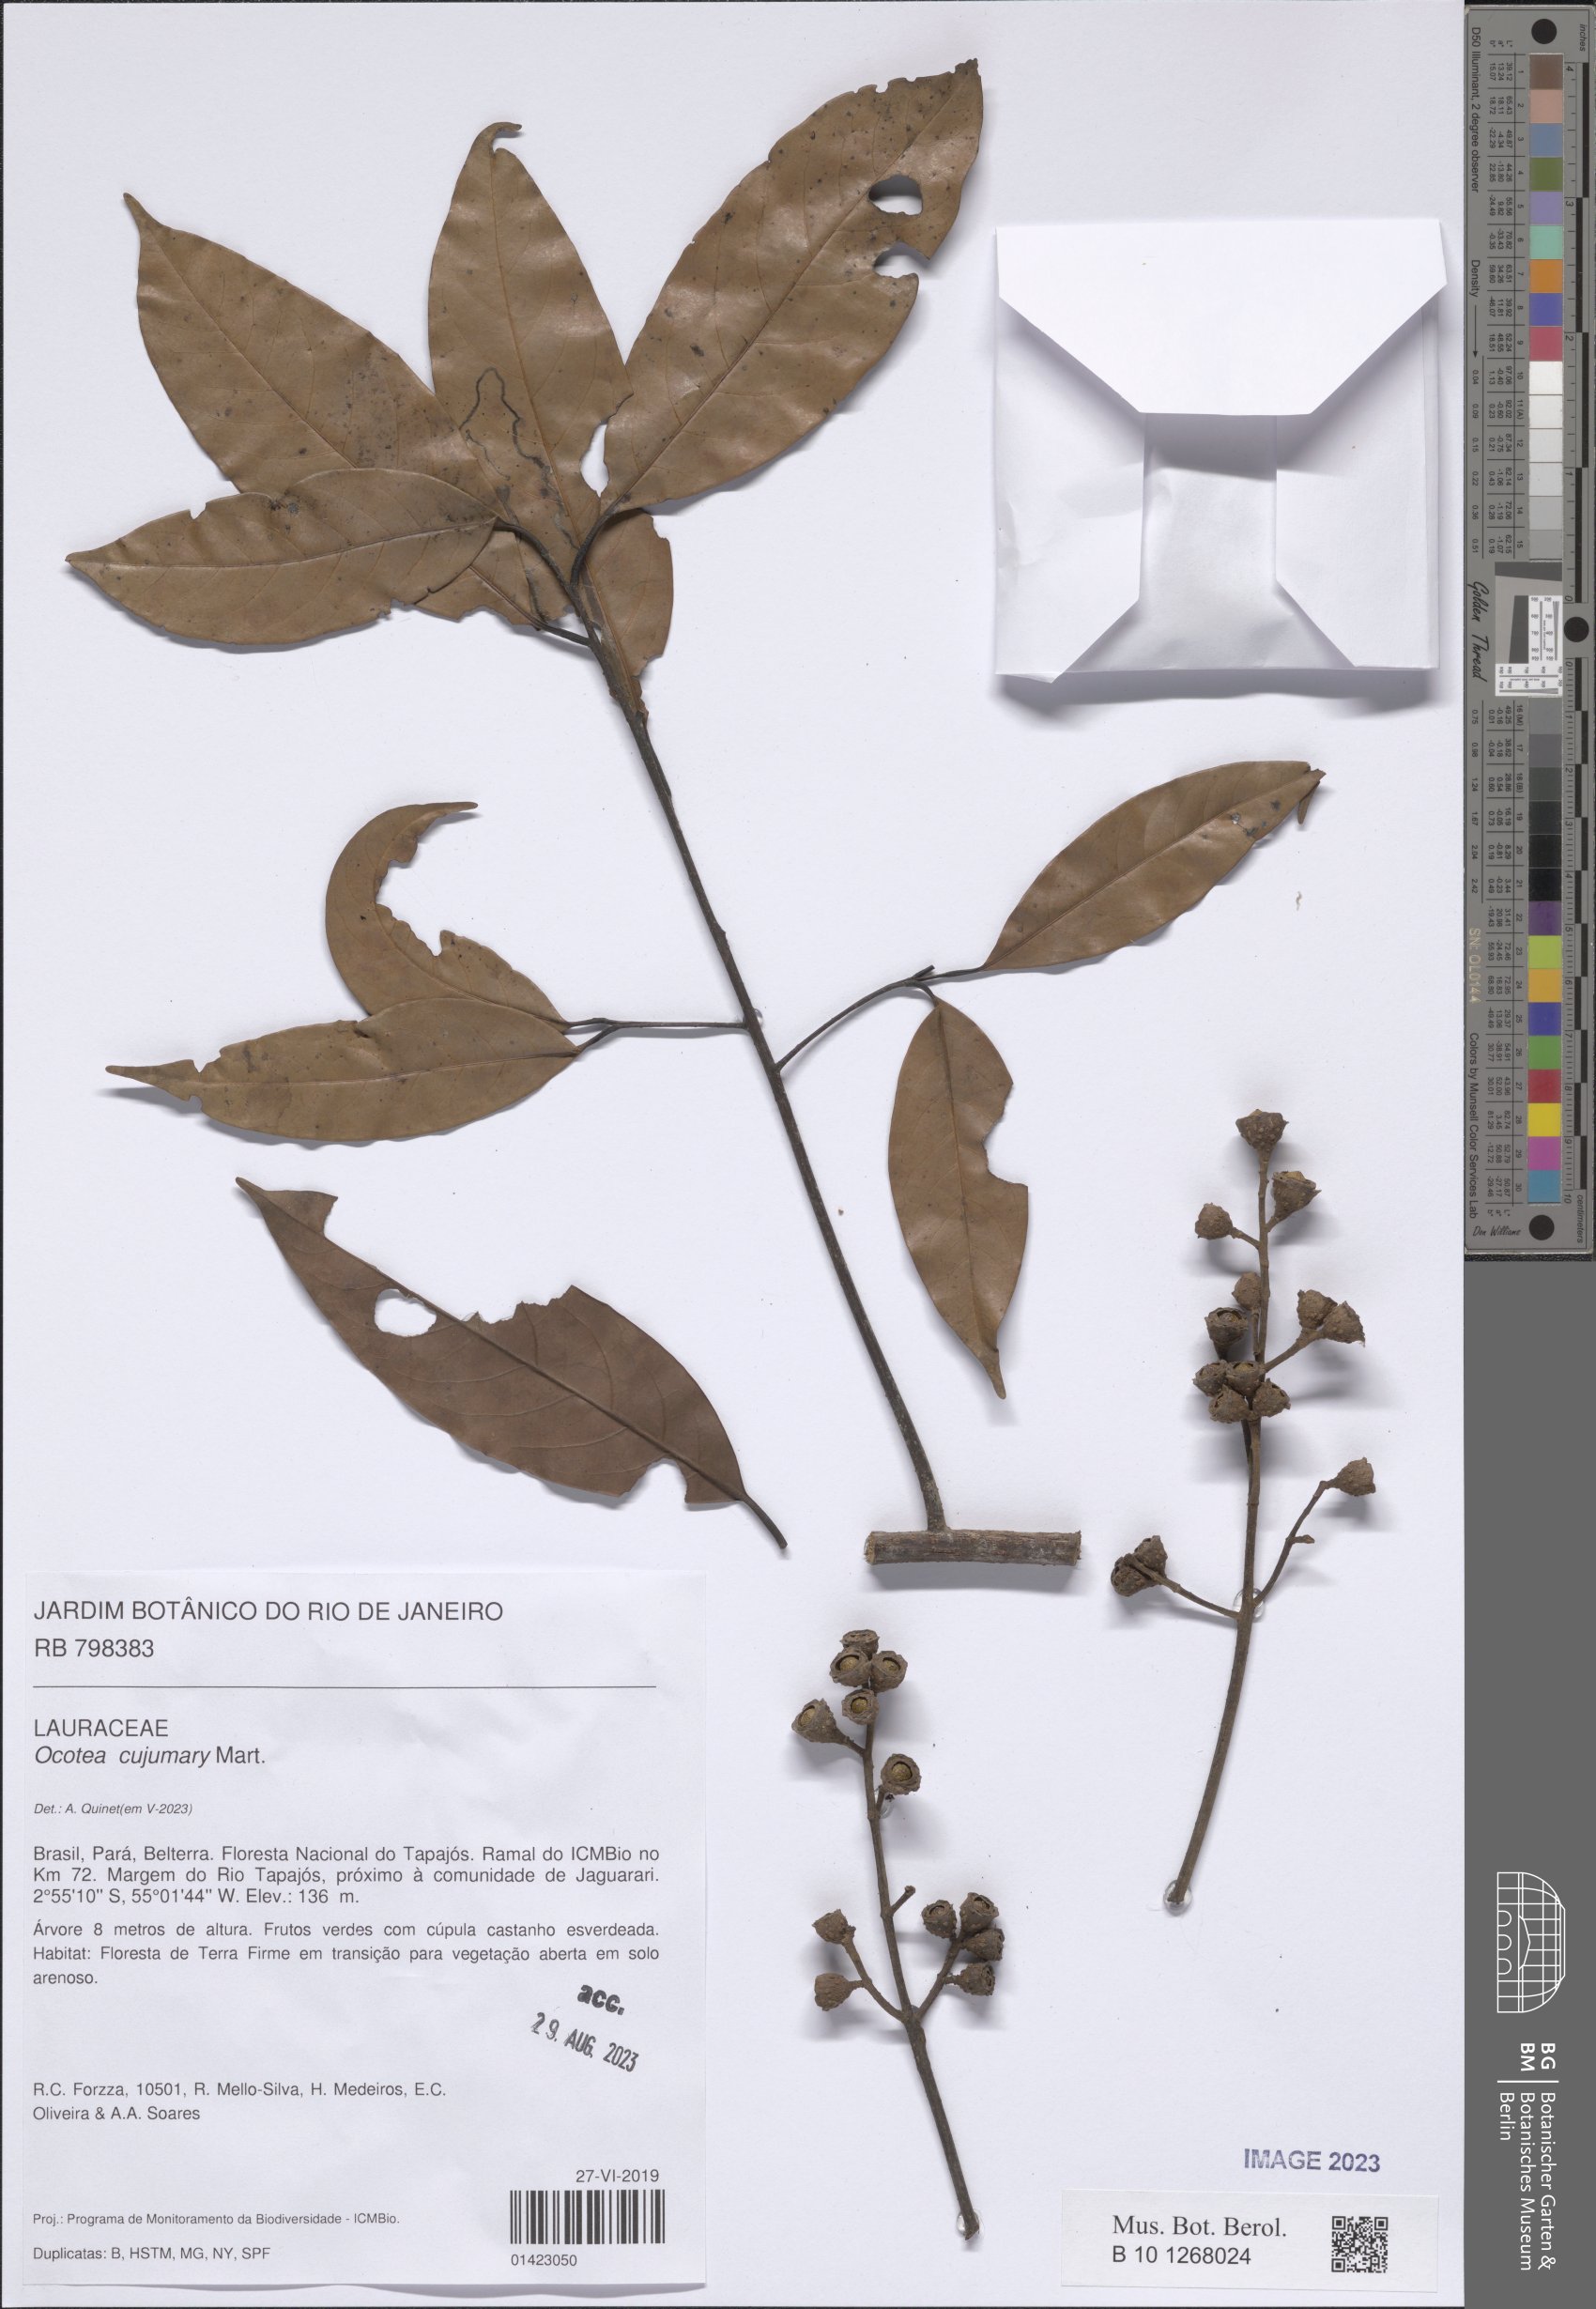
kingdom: Plantae
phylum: Tracheophyta
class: Magnoliopsida
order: Laurales
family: Lauraceae
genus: Ocotea
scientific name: Ocotea cujumary
